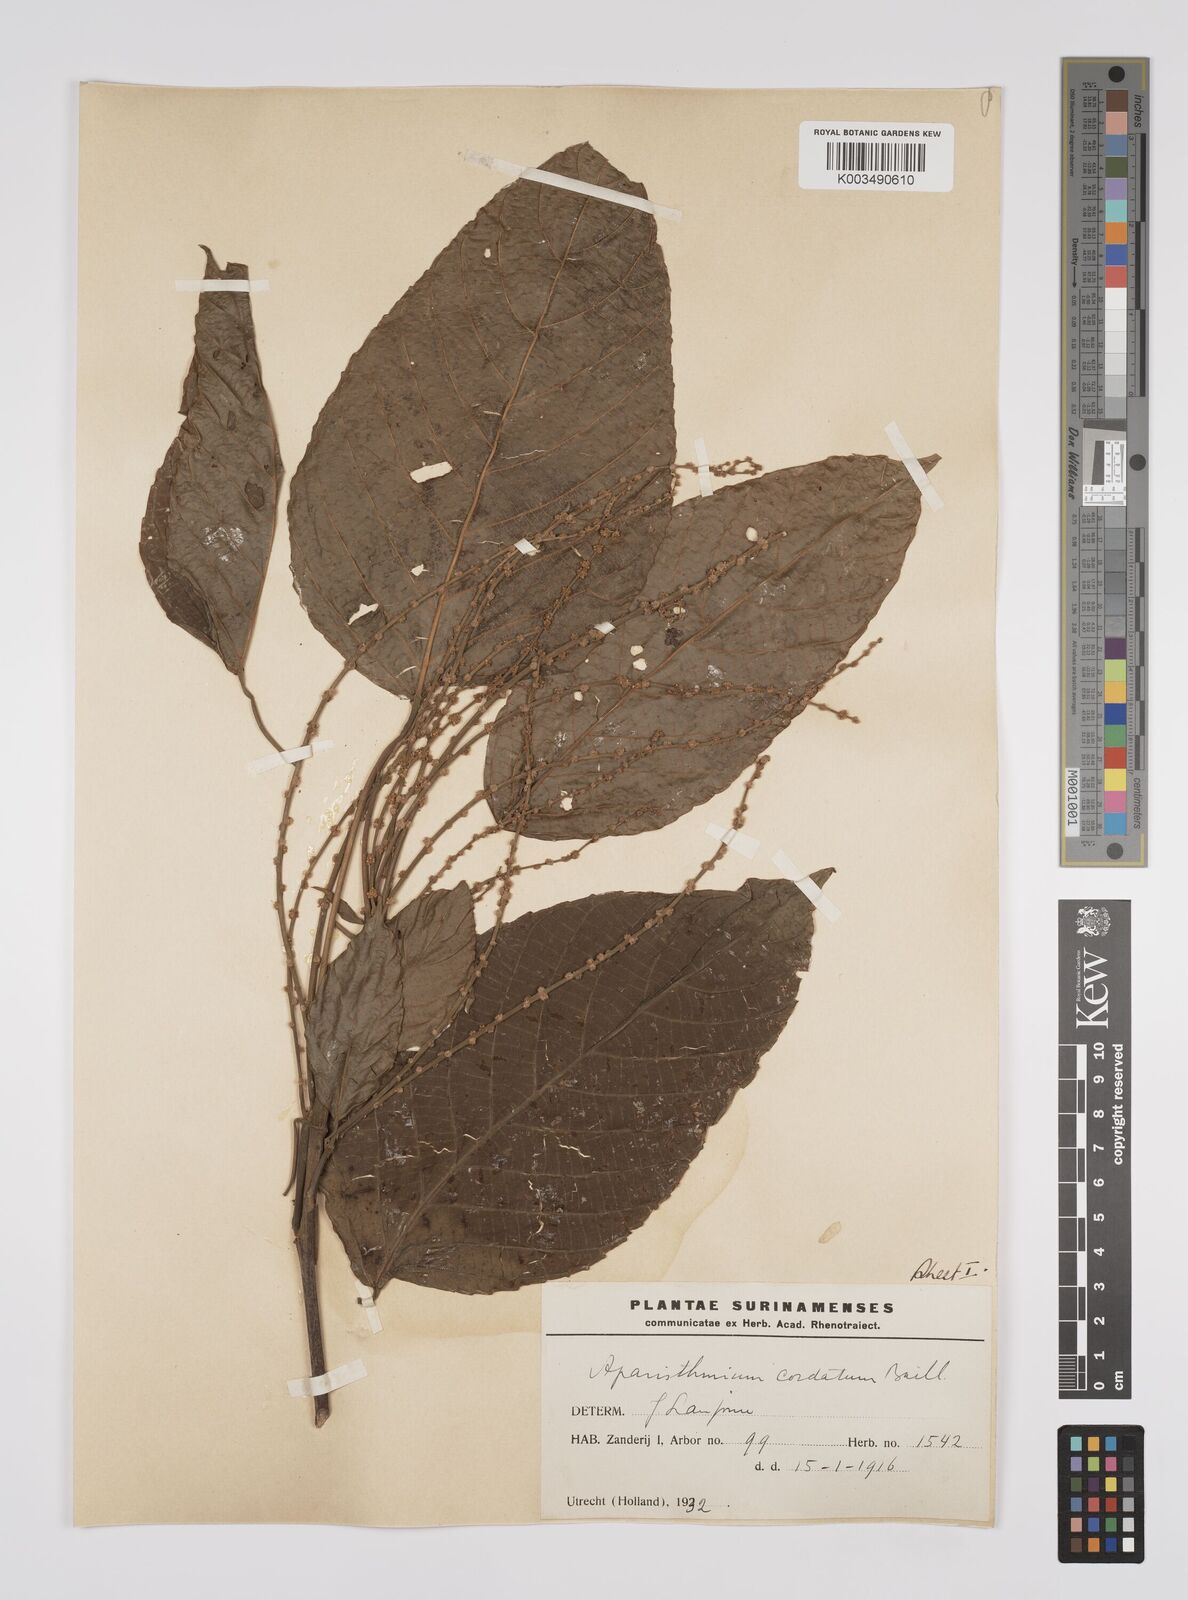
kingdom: Plantae
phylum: Tracheophyta
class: Magnoliopsida
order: Malpighiales
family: Euphorbiaceae
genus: Aparisthmium
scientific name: Aparisthmium cordatum
